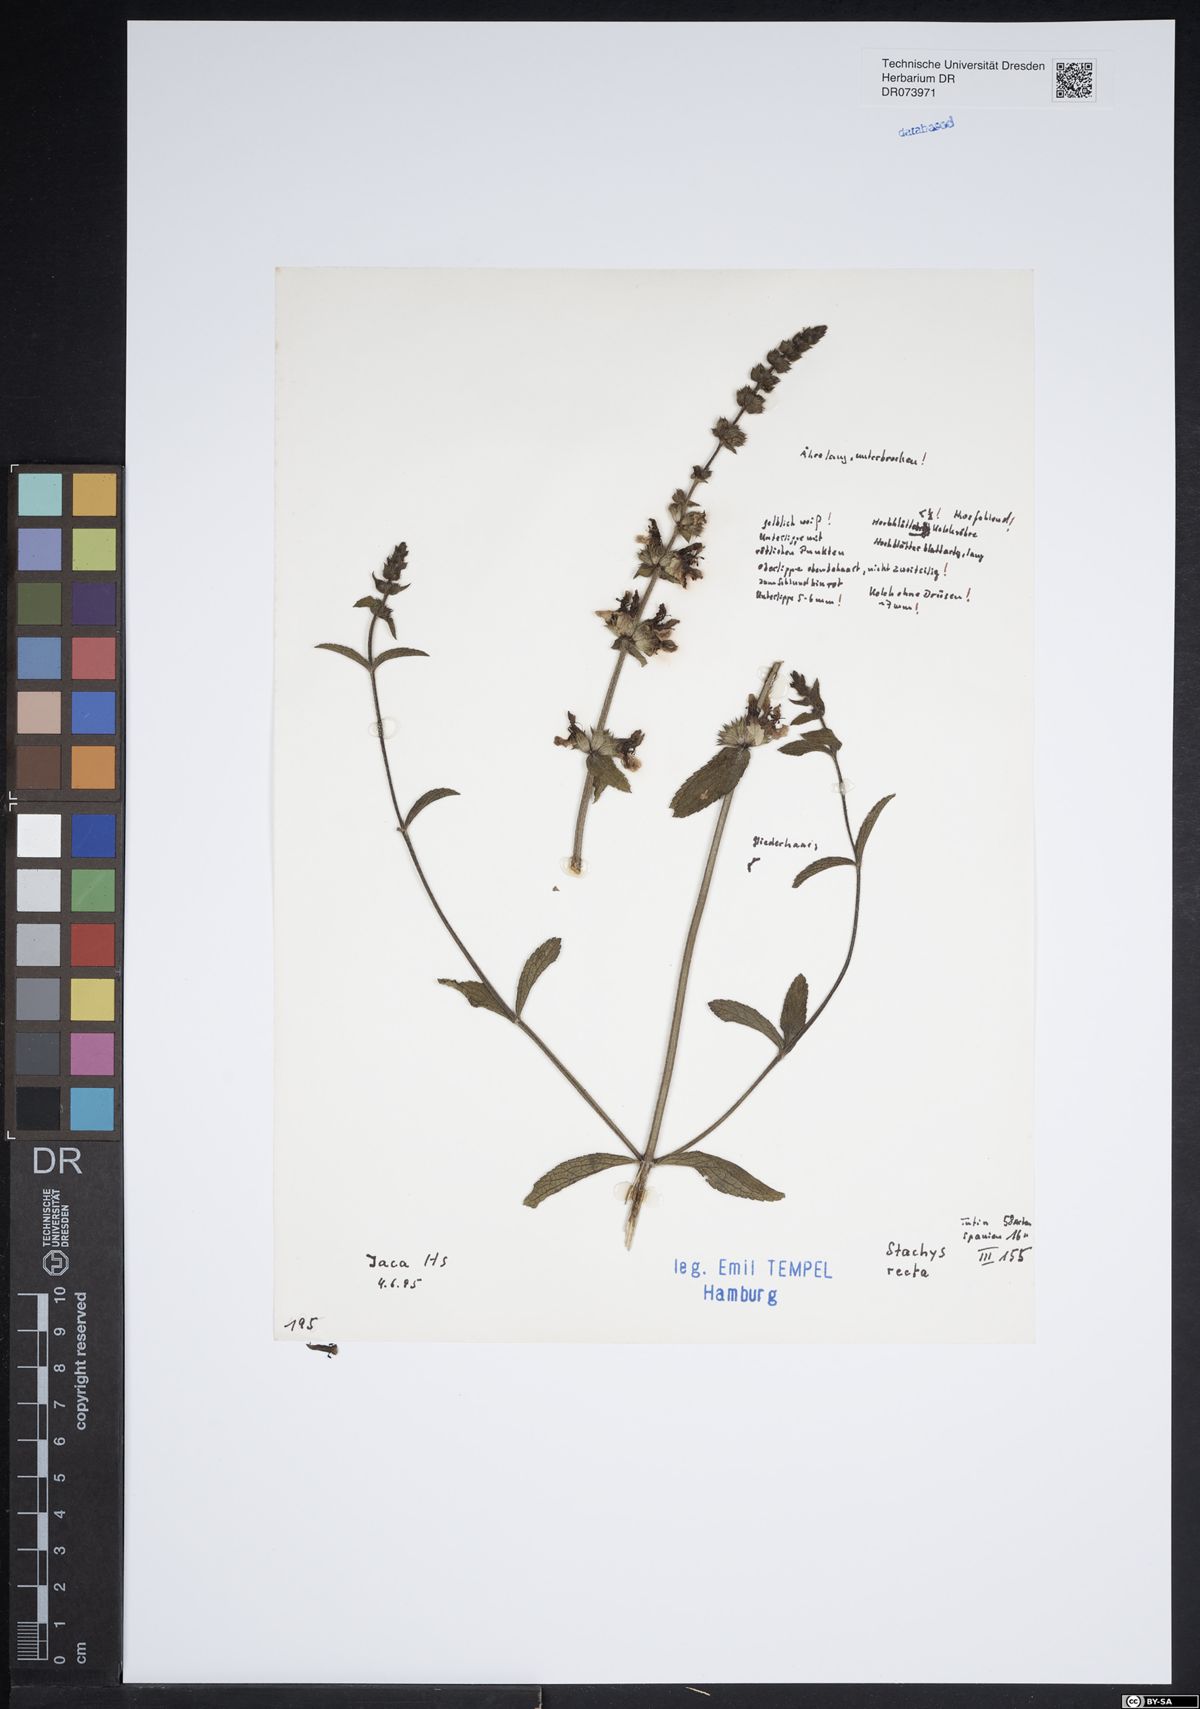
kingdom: Plantae
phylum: Tracheophyta
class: Magnoliopsida
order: Lamiales
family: Lamiaceae
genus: Stachys
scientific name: Stachys recta
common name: Perennial yellow-woundwort
